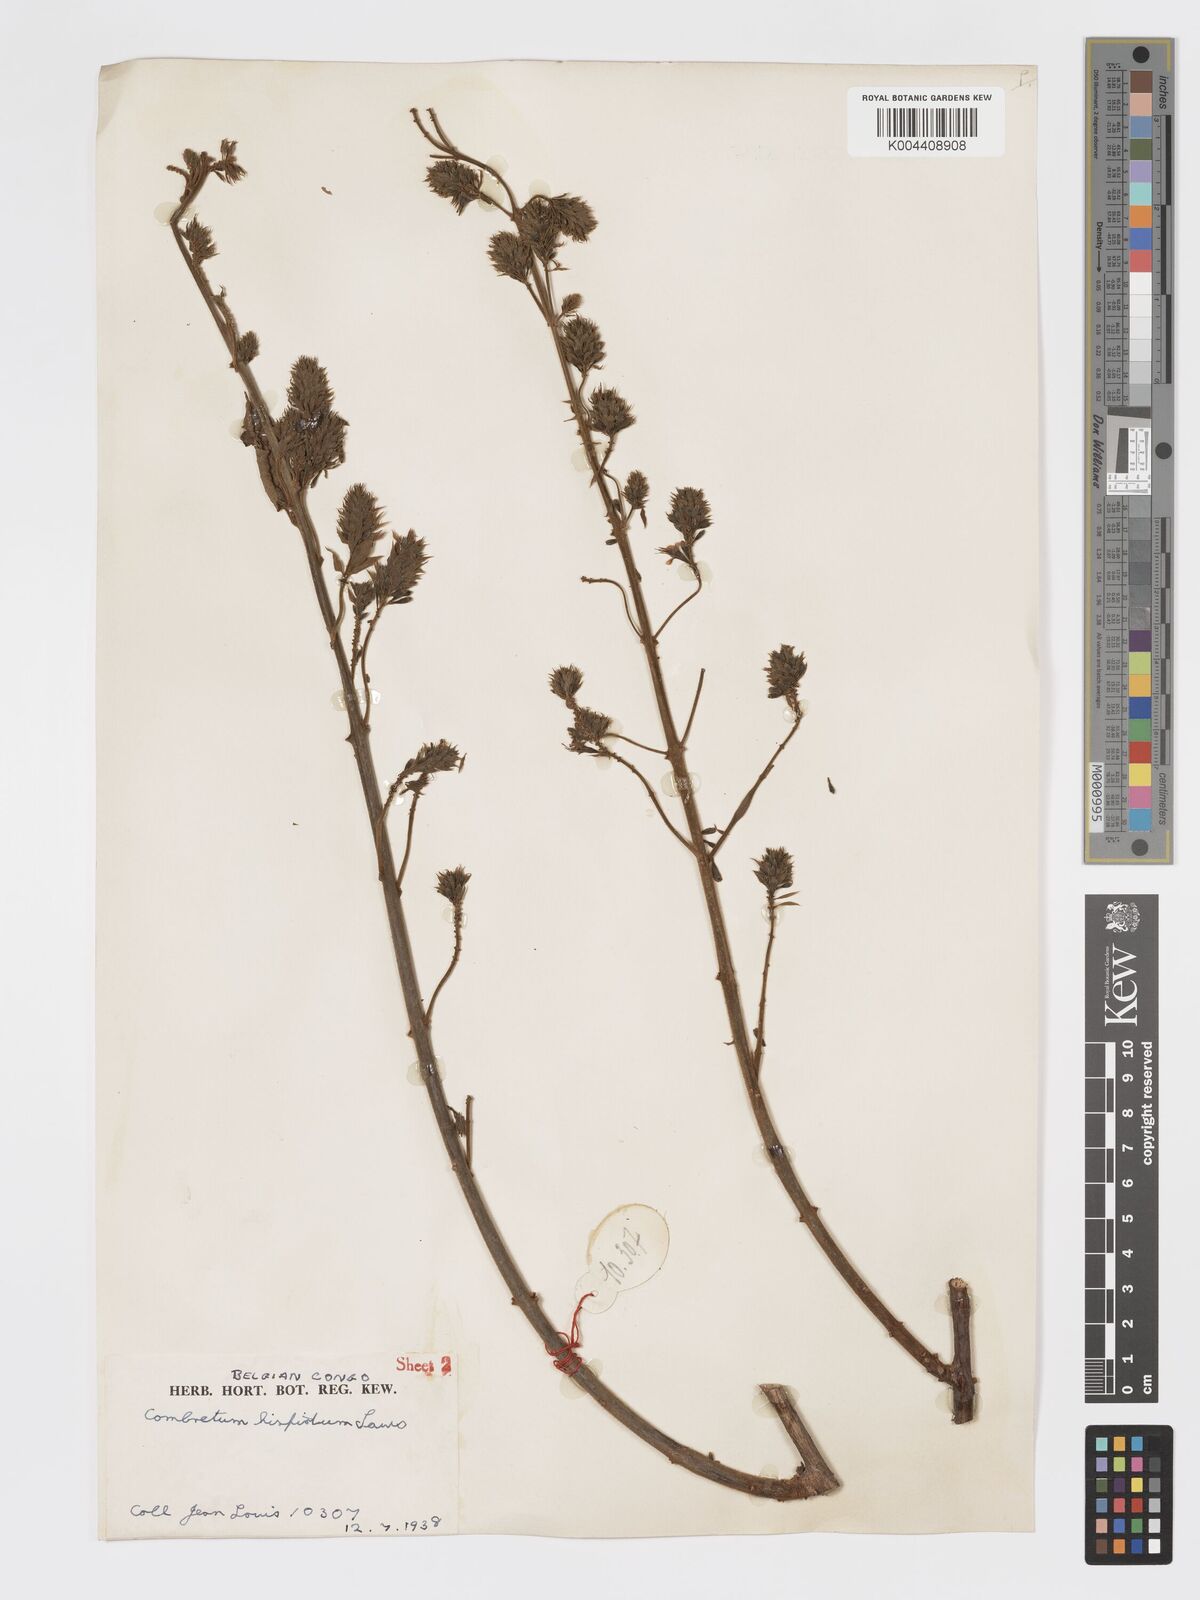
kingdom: Plantae
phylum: Tracheophyta
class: Magnoliopsida
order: Myrtales
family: Combretaceae
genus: Combretum
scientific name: Combretum comosum
